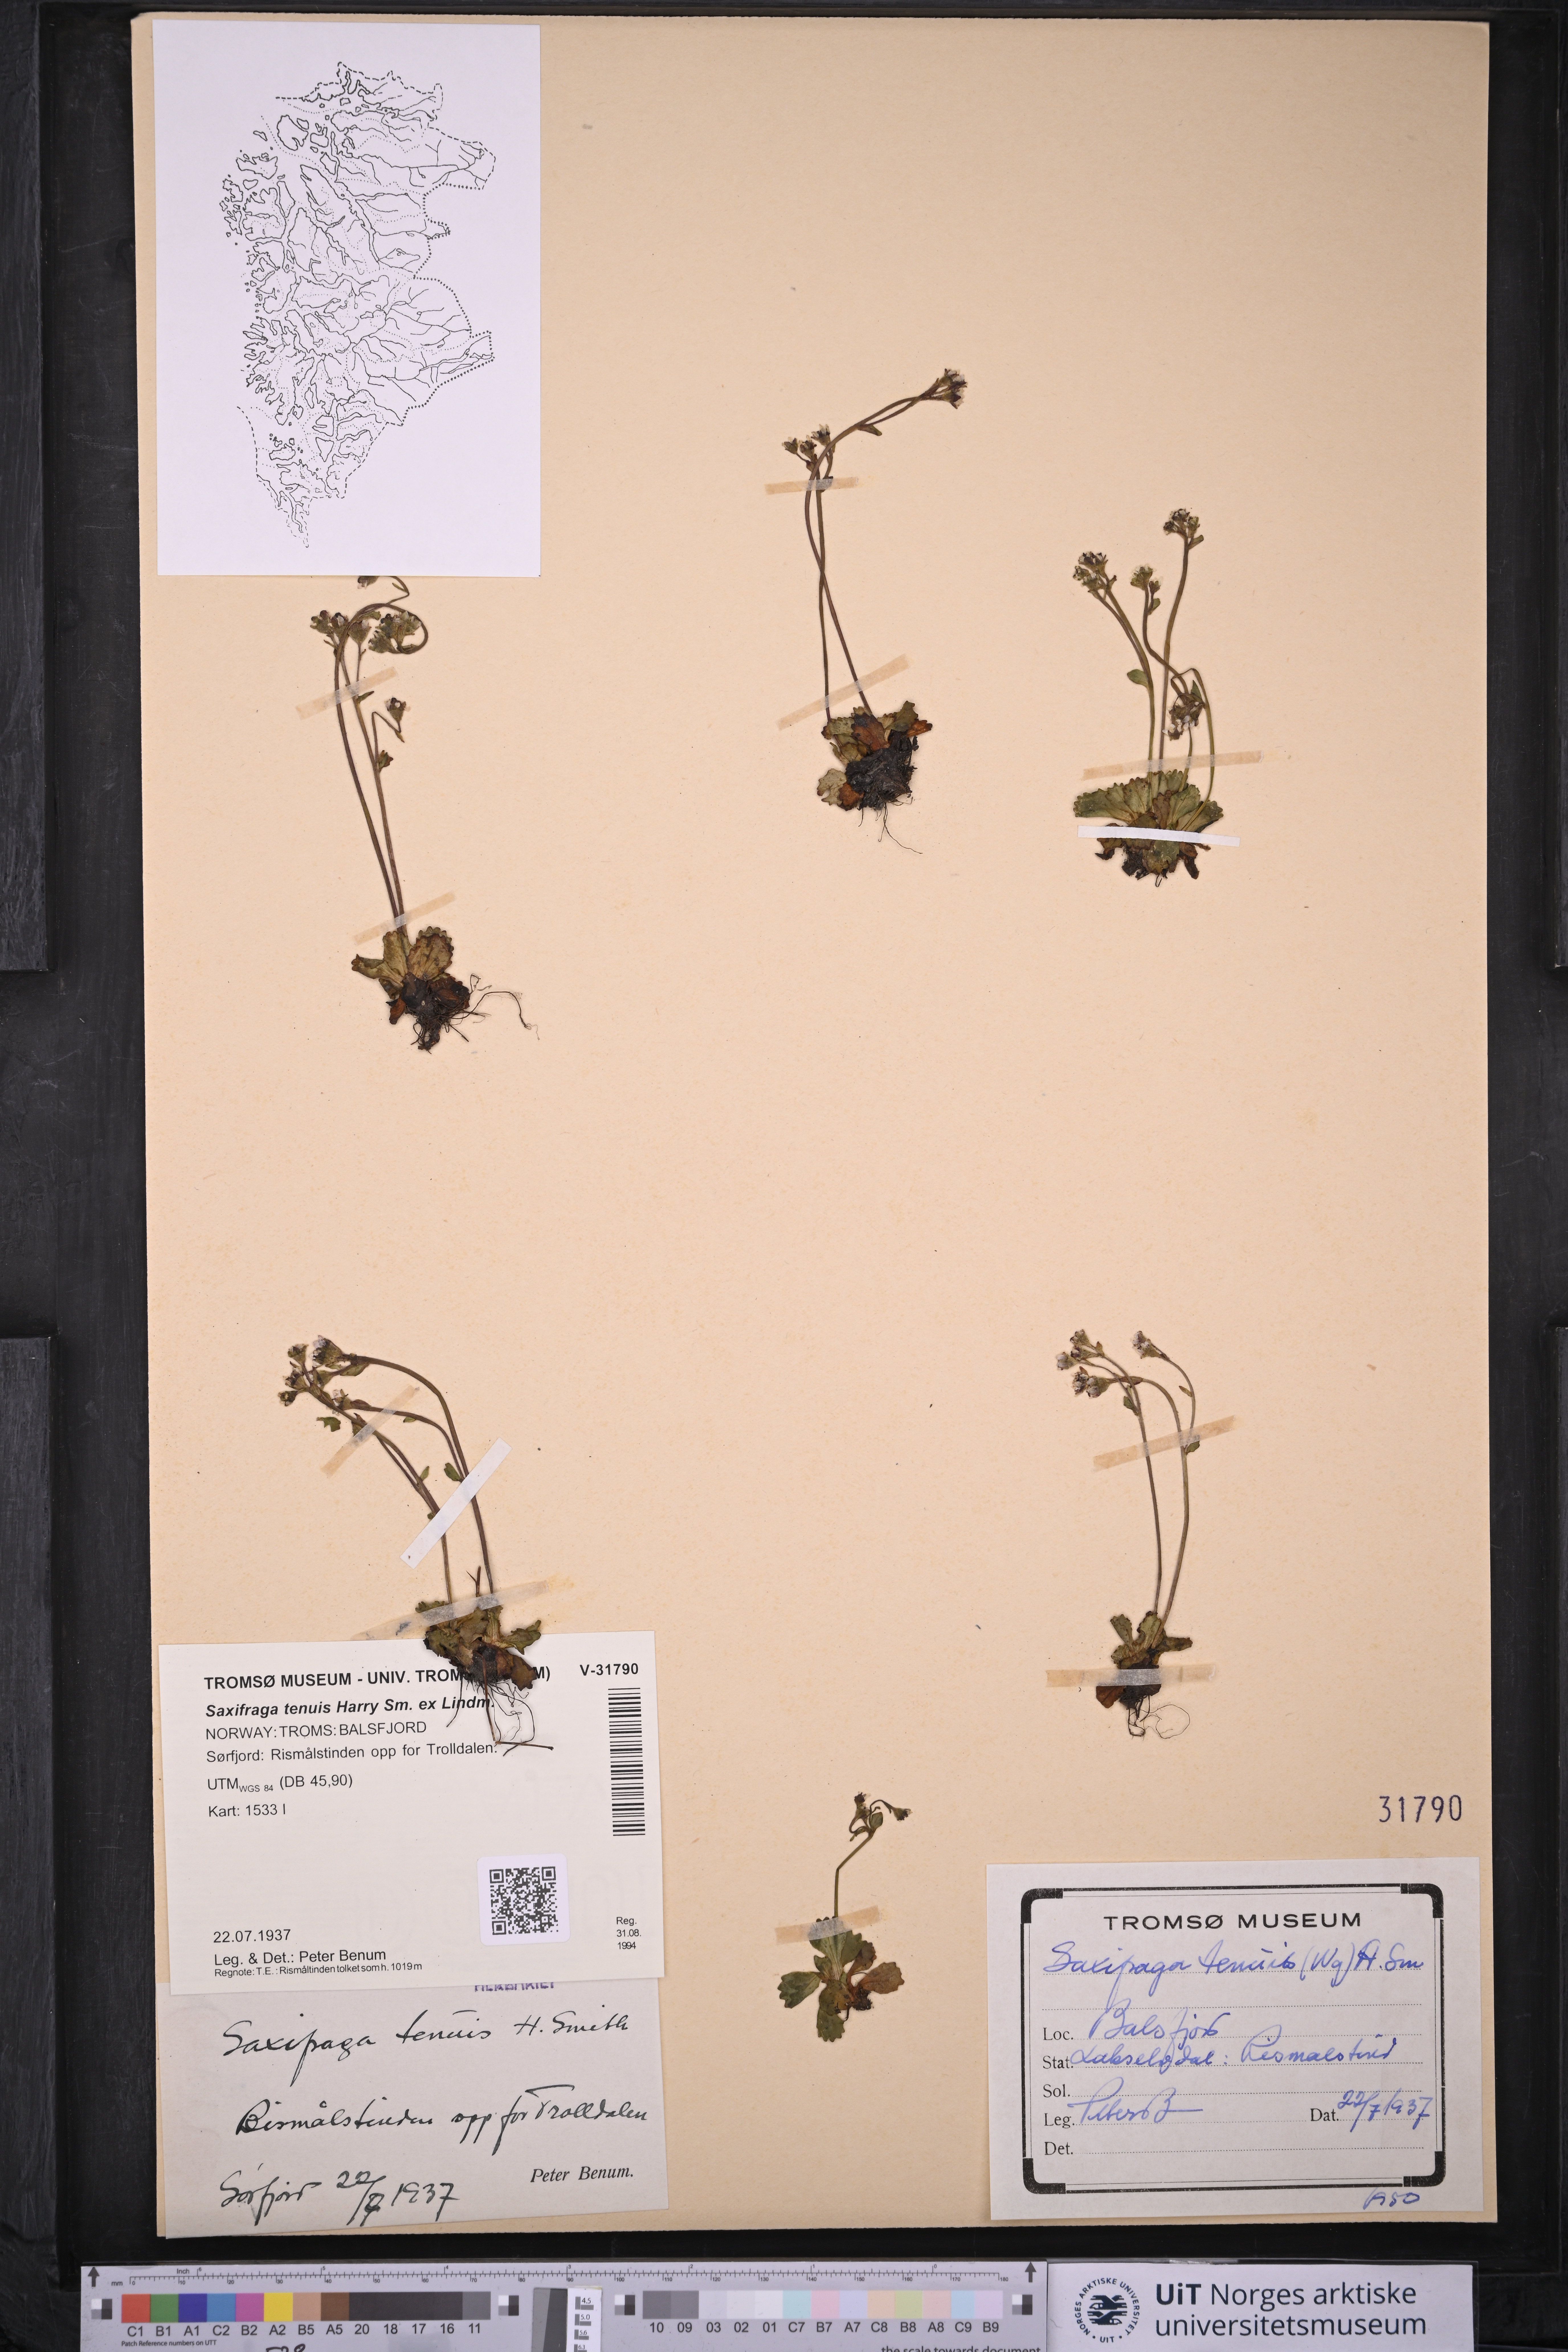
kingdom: Plantae
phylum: Tracheophyta
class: Magnoliopsida
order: Saxifragales
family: Saxifragaceae
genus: Micranthes
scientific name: Micranthes tenuis
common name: Ottertail pass saxifrage
